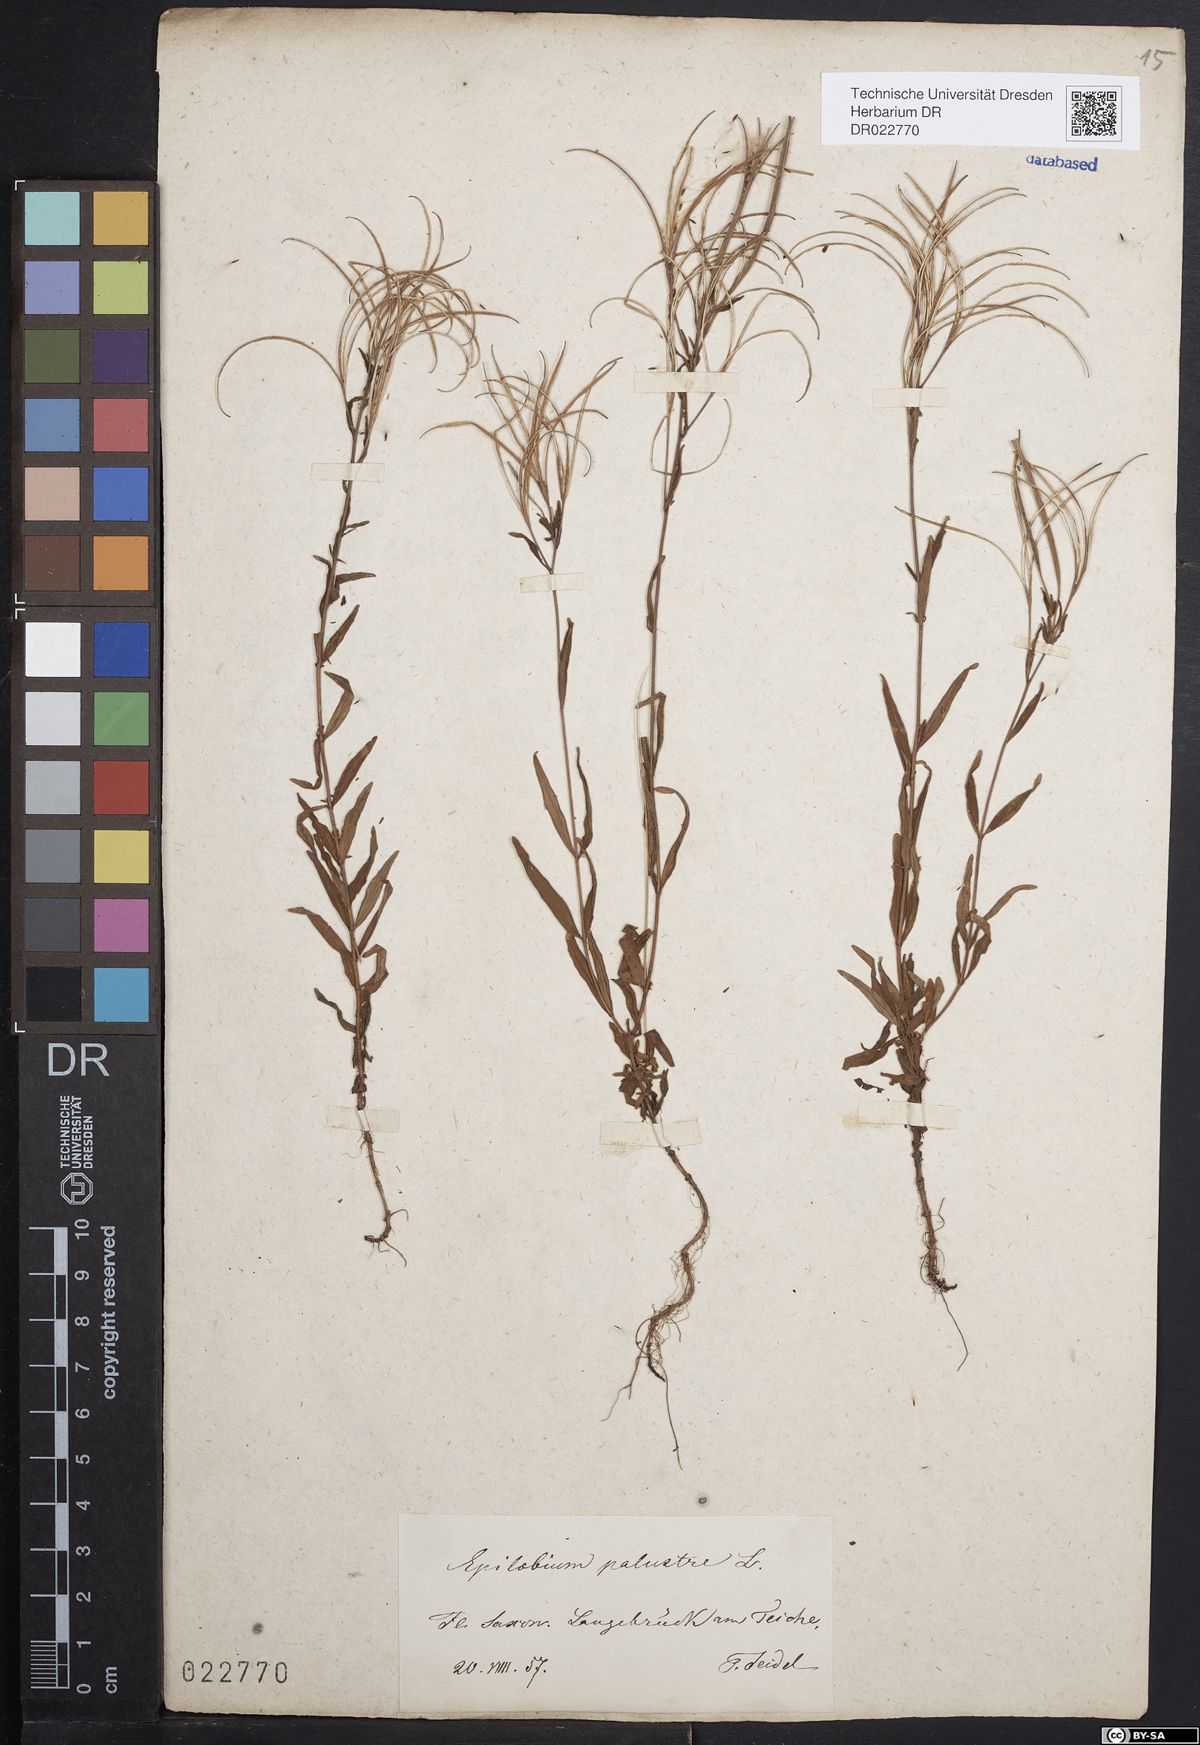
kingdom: Plantae
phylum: Tracheophyta
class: Magnoliopsida
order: Myrtales
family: Onagraceae
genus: Epilobium
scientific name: Epilobium palustre
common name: Marsh willowherb
